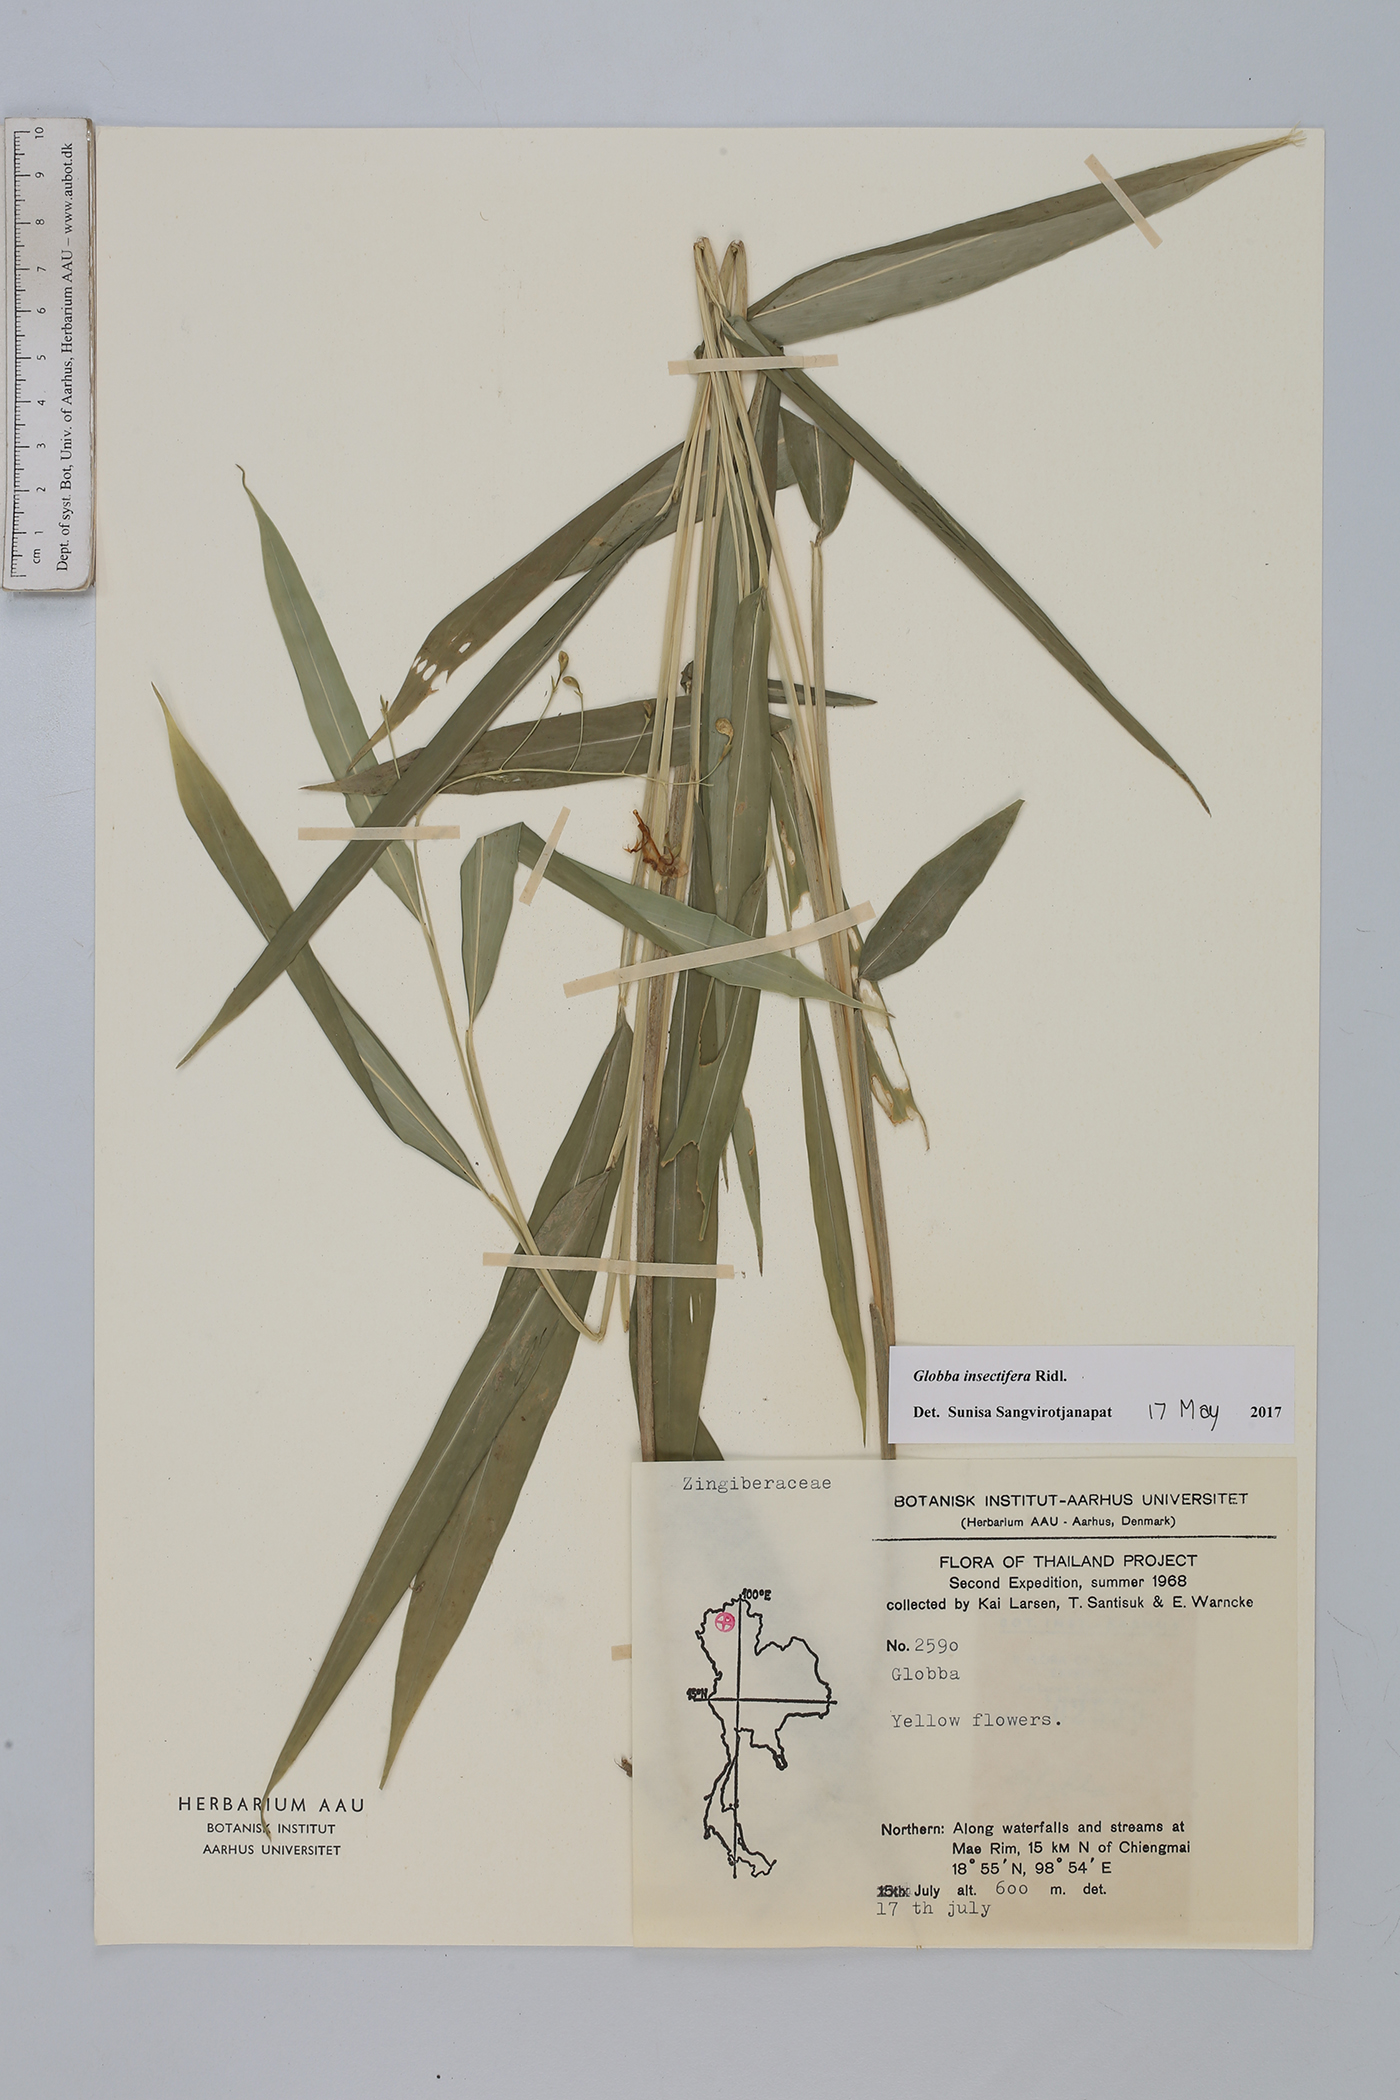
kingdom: Plantae
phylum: Tracheophyta
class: Liliopsida
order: Zingiberales
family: Zingiberaceae
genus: Globba
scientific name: Globba insectifera
